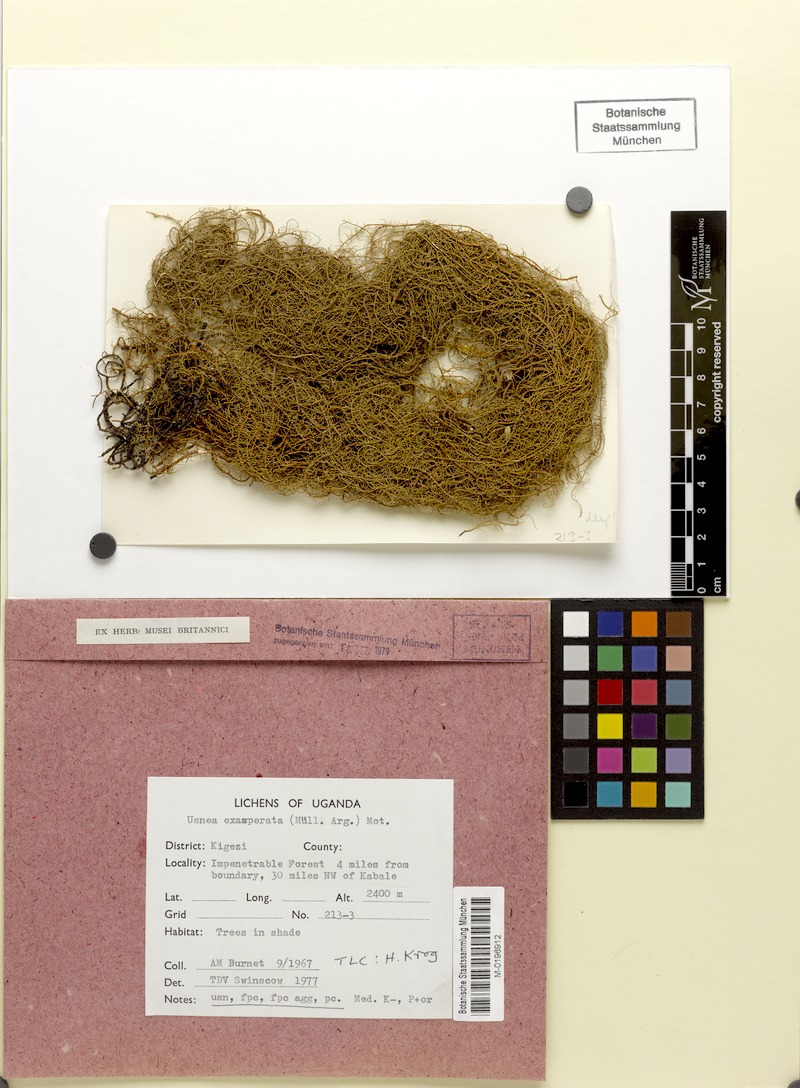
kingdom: Fungi
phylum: Ascomycota
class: Lecanoromycetes
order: Lecanorales
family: Parmeliaceae
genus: Xanthoparmelia
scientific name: Xanthoparmelia amplexula
